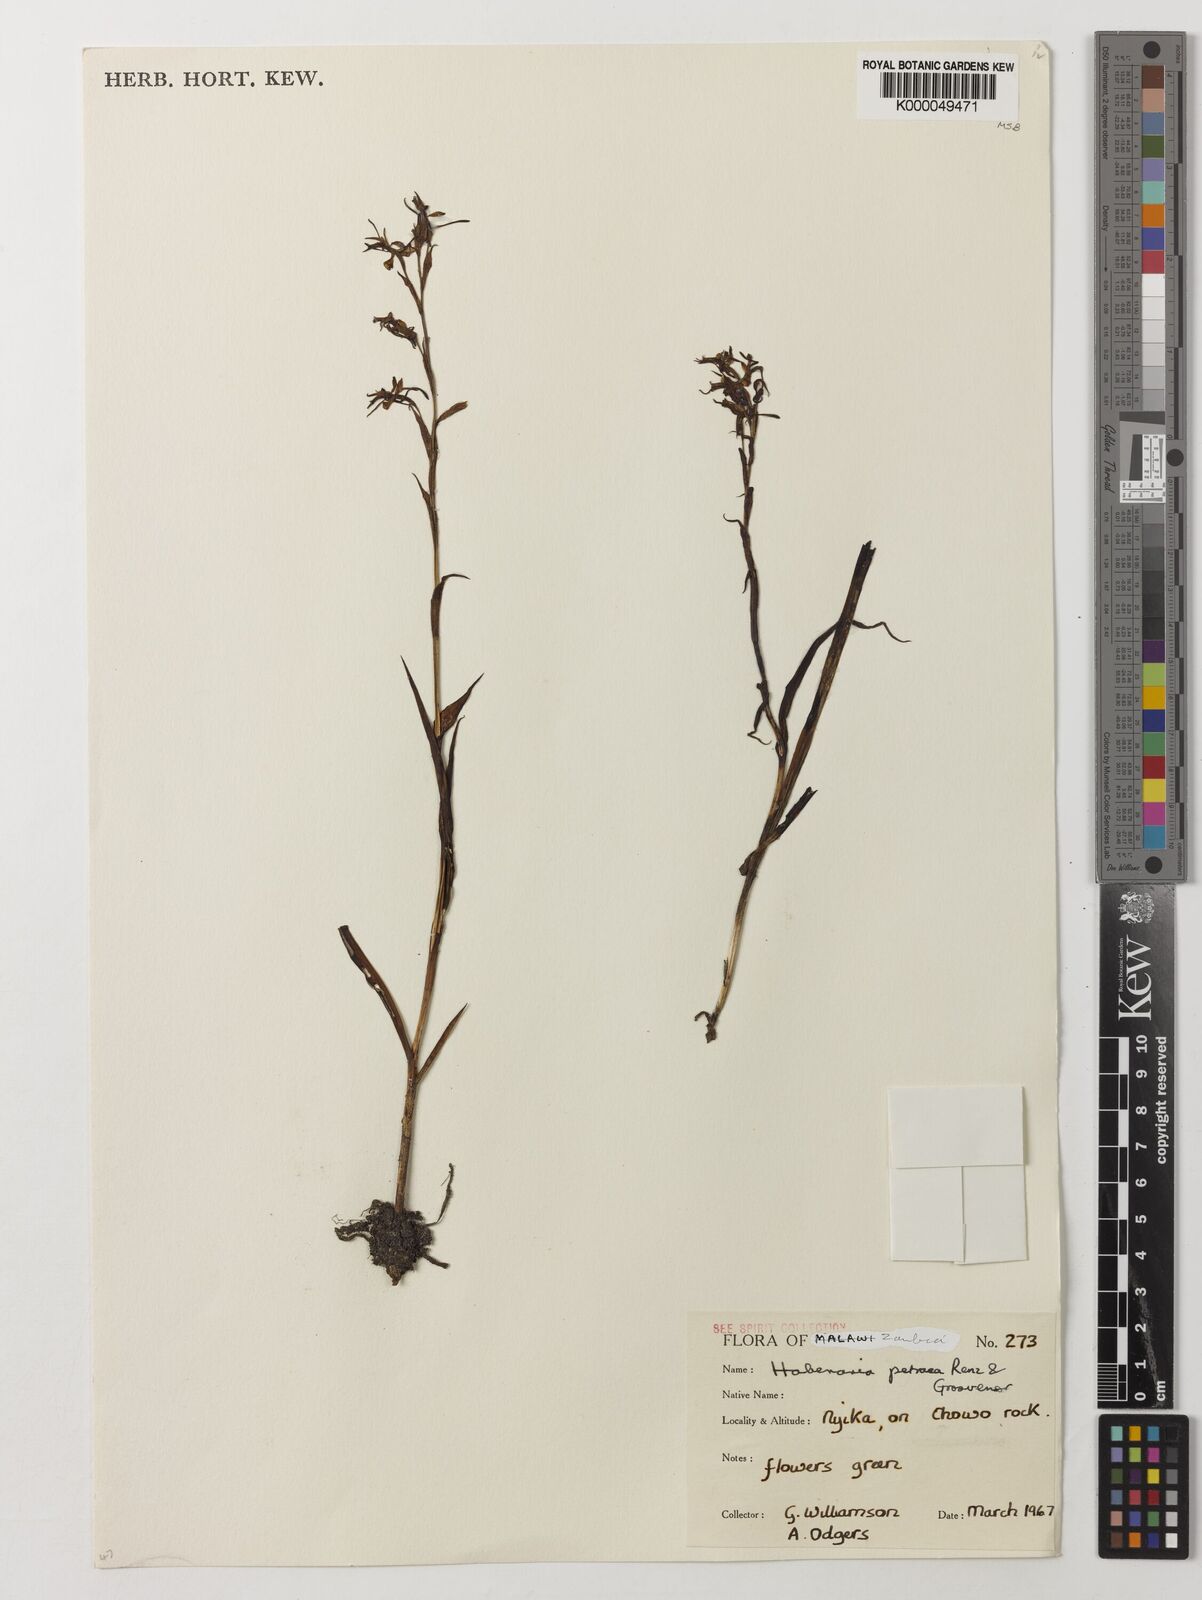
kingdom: Plantae
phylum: Tracheophyta
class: Liliopsida
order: Asparagales
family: Orchidaceae
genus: Habenaria
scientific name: Habenaria petraea
